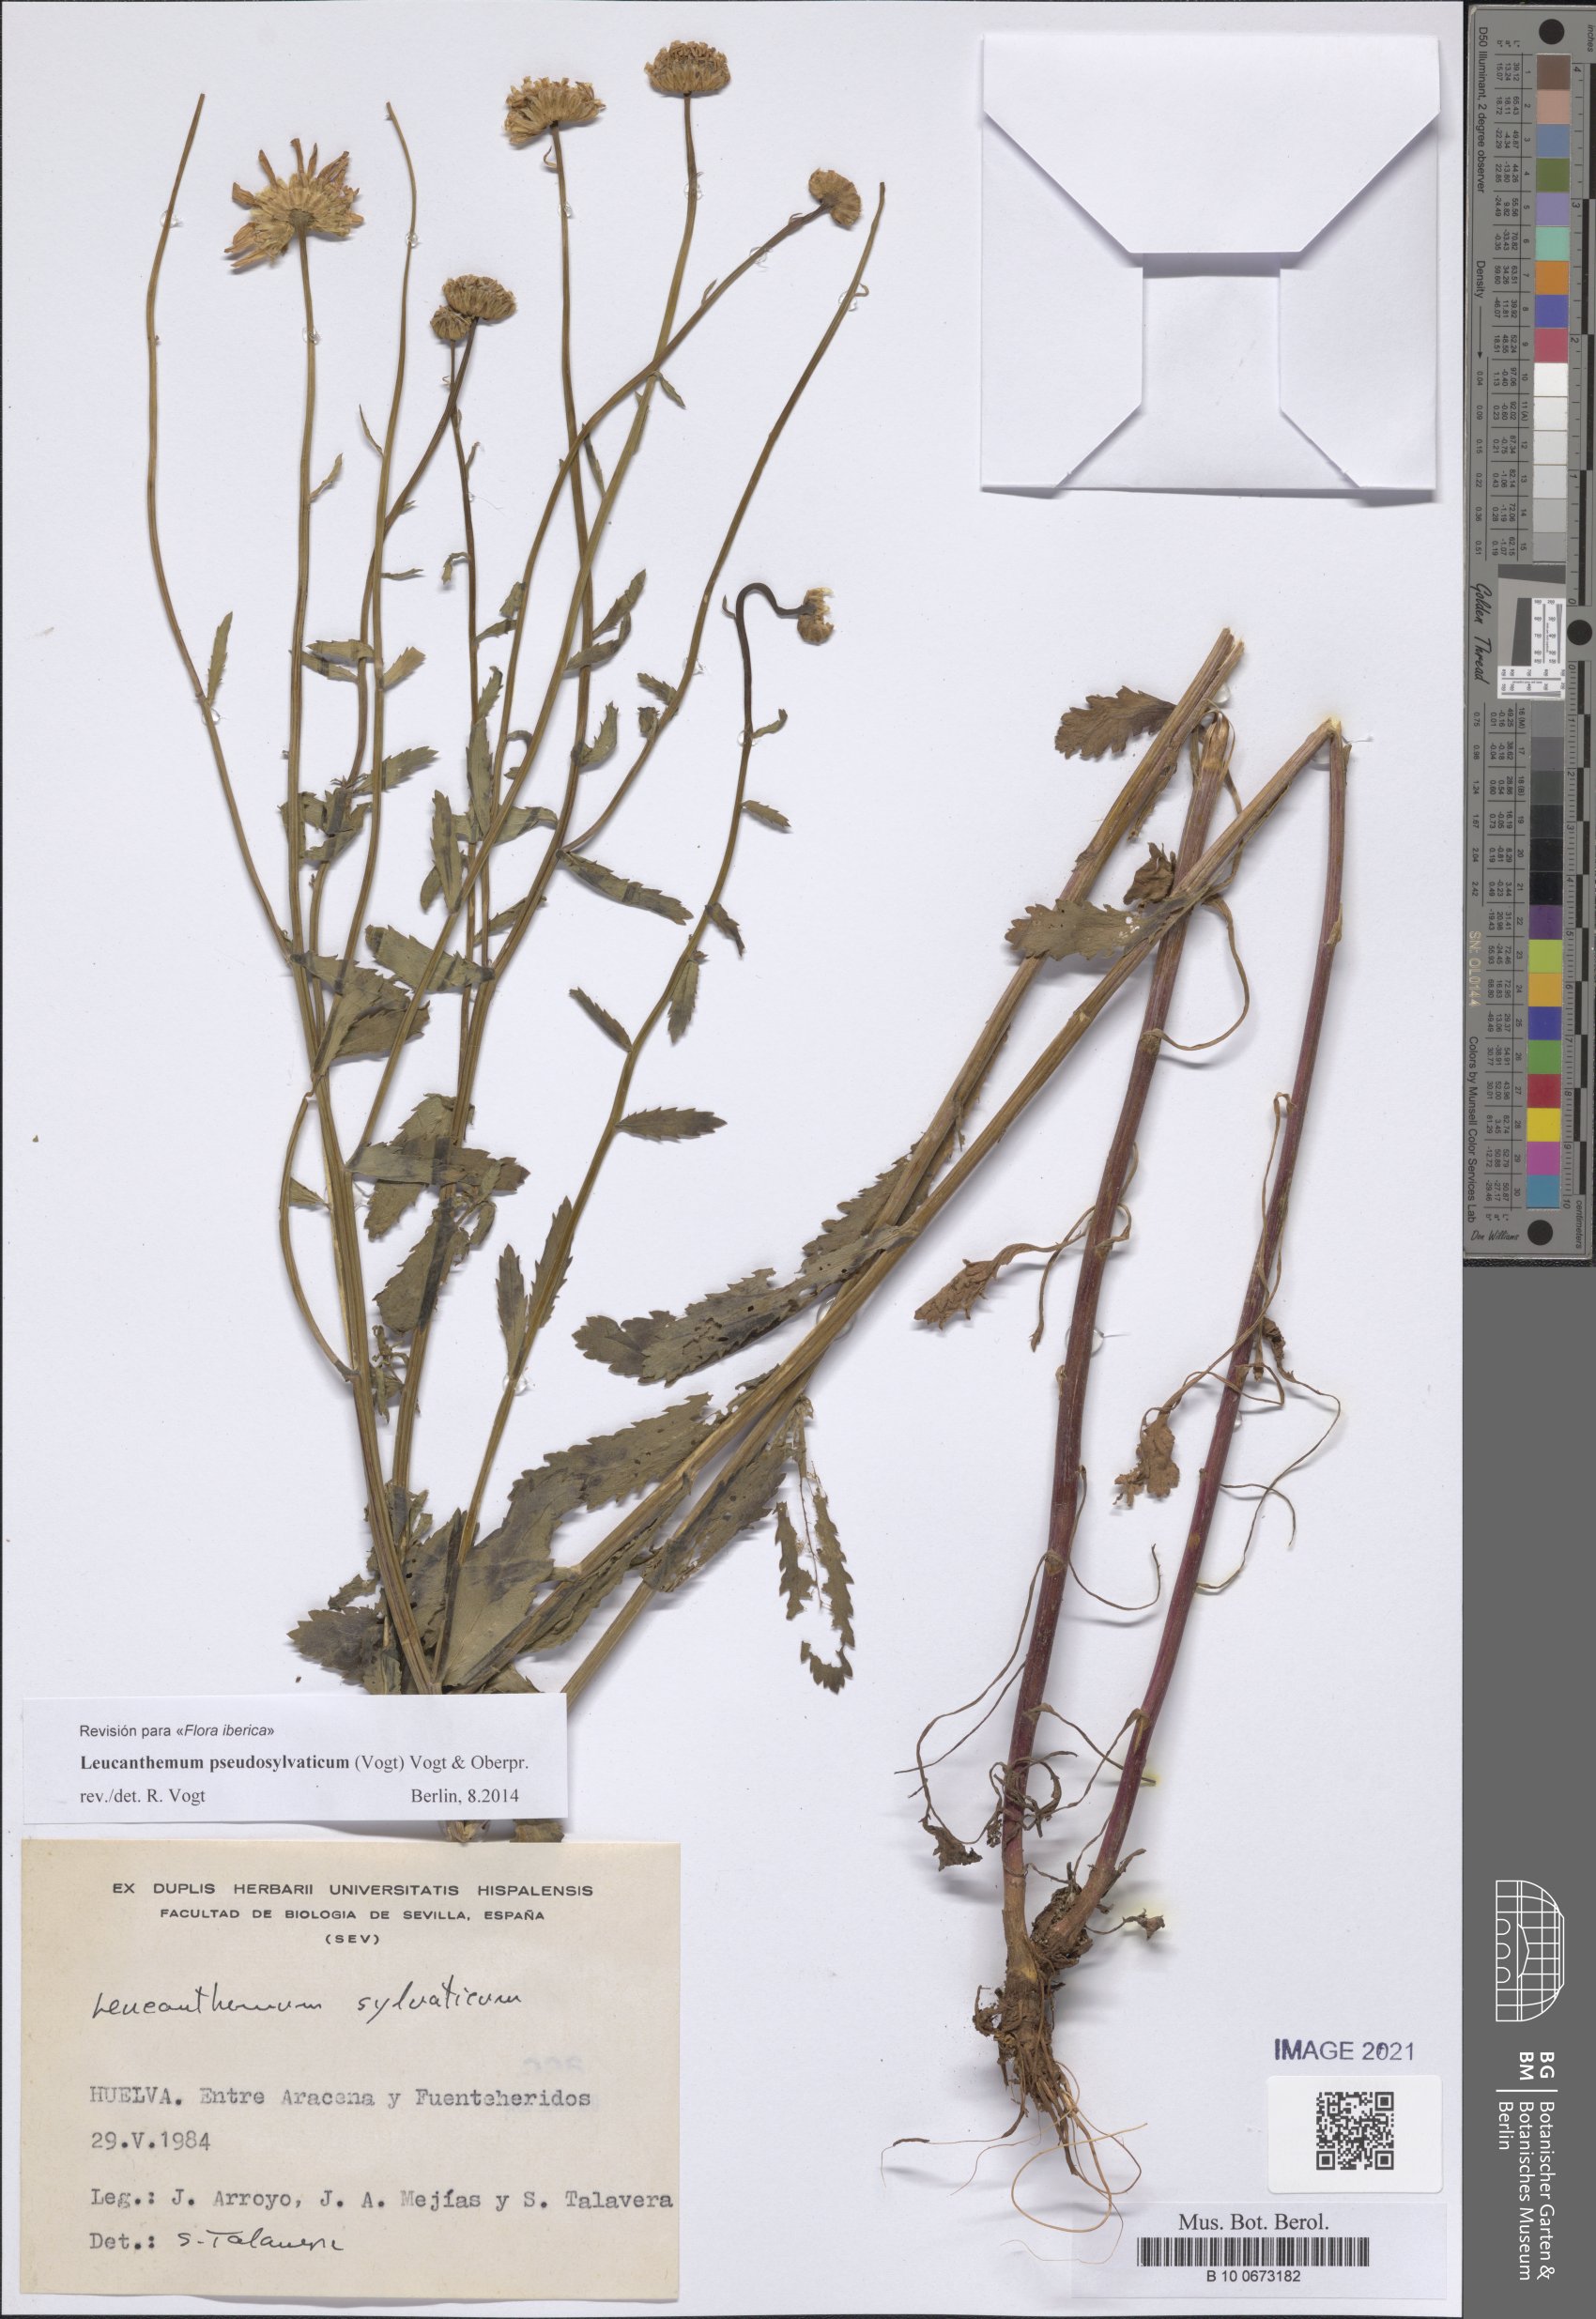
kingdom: Plantae
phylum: Tracheophyta
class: Magnoliopsida
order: Asterales
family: Asteraceae
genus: Leucanthemum
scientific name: Leucanthemum pseudosylvaticum
